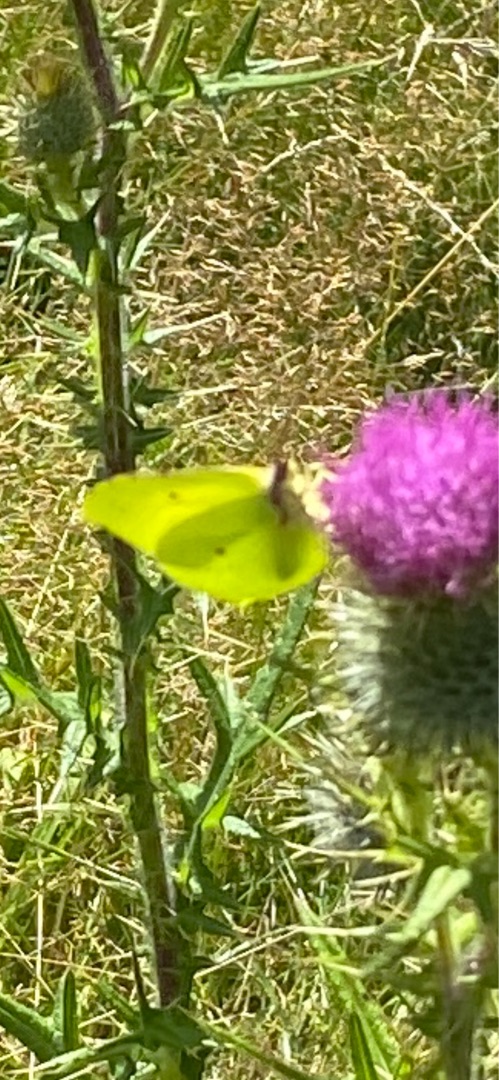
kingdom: Animalia
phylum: Arthropoda
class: Insecta
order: Lepidoptera
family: Pieridae
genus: Gonepteryx
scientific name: Gonepteryx rhamni
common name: Citronsommerfugl
